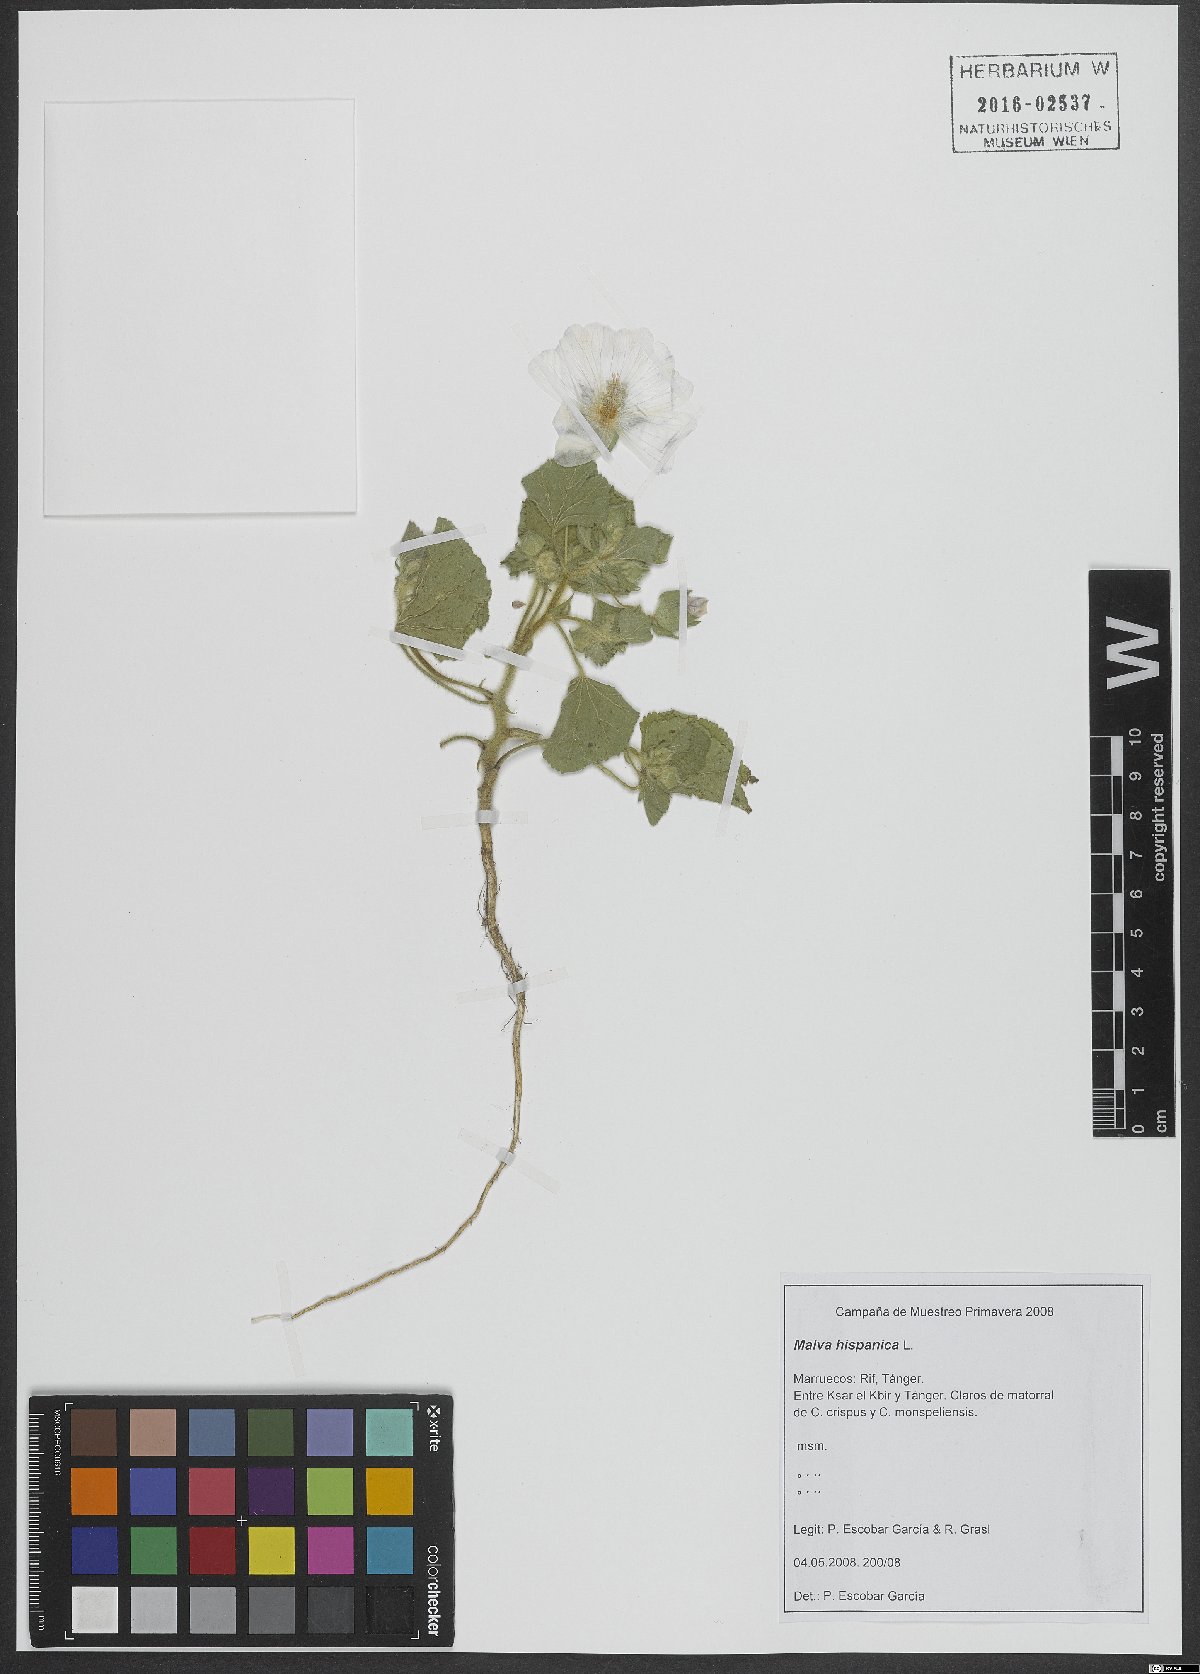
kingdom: Plantae
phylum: Tracheophyta
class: Magnoliopsida
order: Malvales
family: Malvaceae
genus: Malva
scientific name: Malva hispanica
